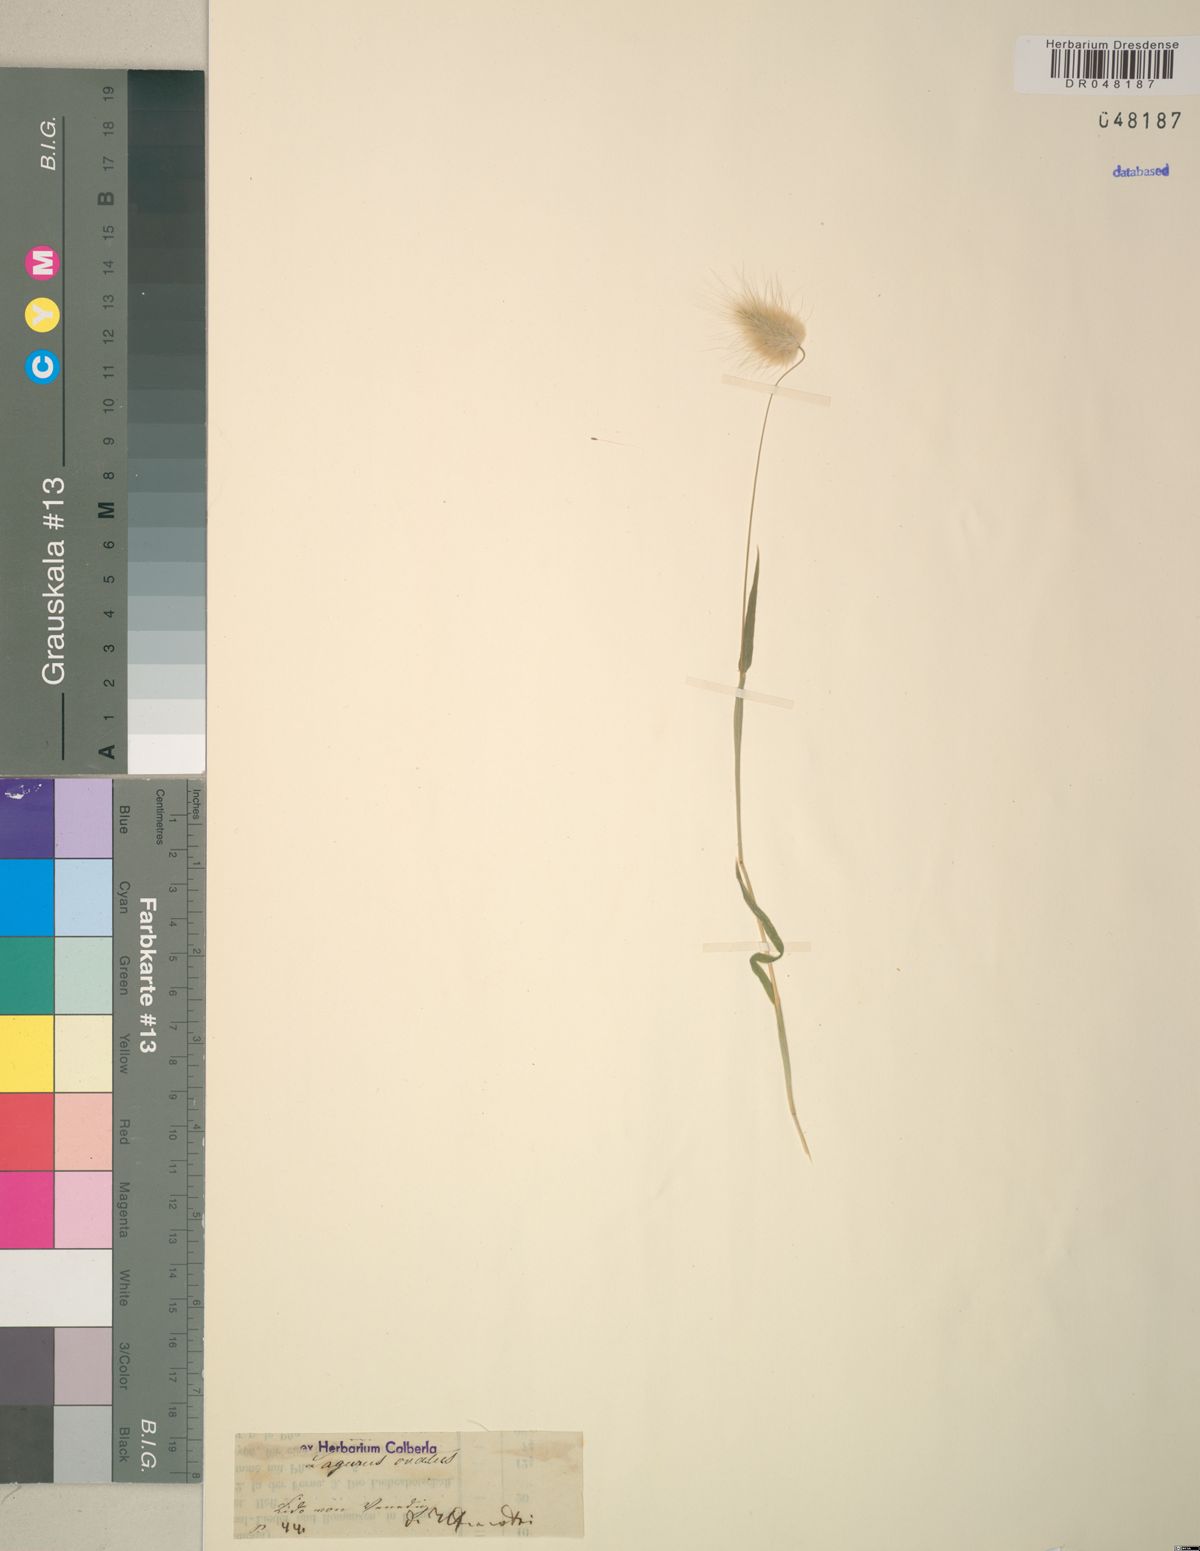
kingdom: Plantae
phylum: Tracheophyta
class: Liliopsida
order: Poales
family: Poaceae
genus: Lagurus
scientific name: Lagurus ovatus
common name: Hare's-tail
